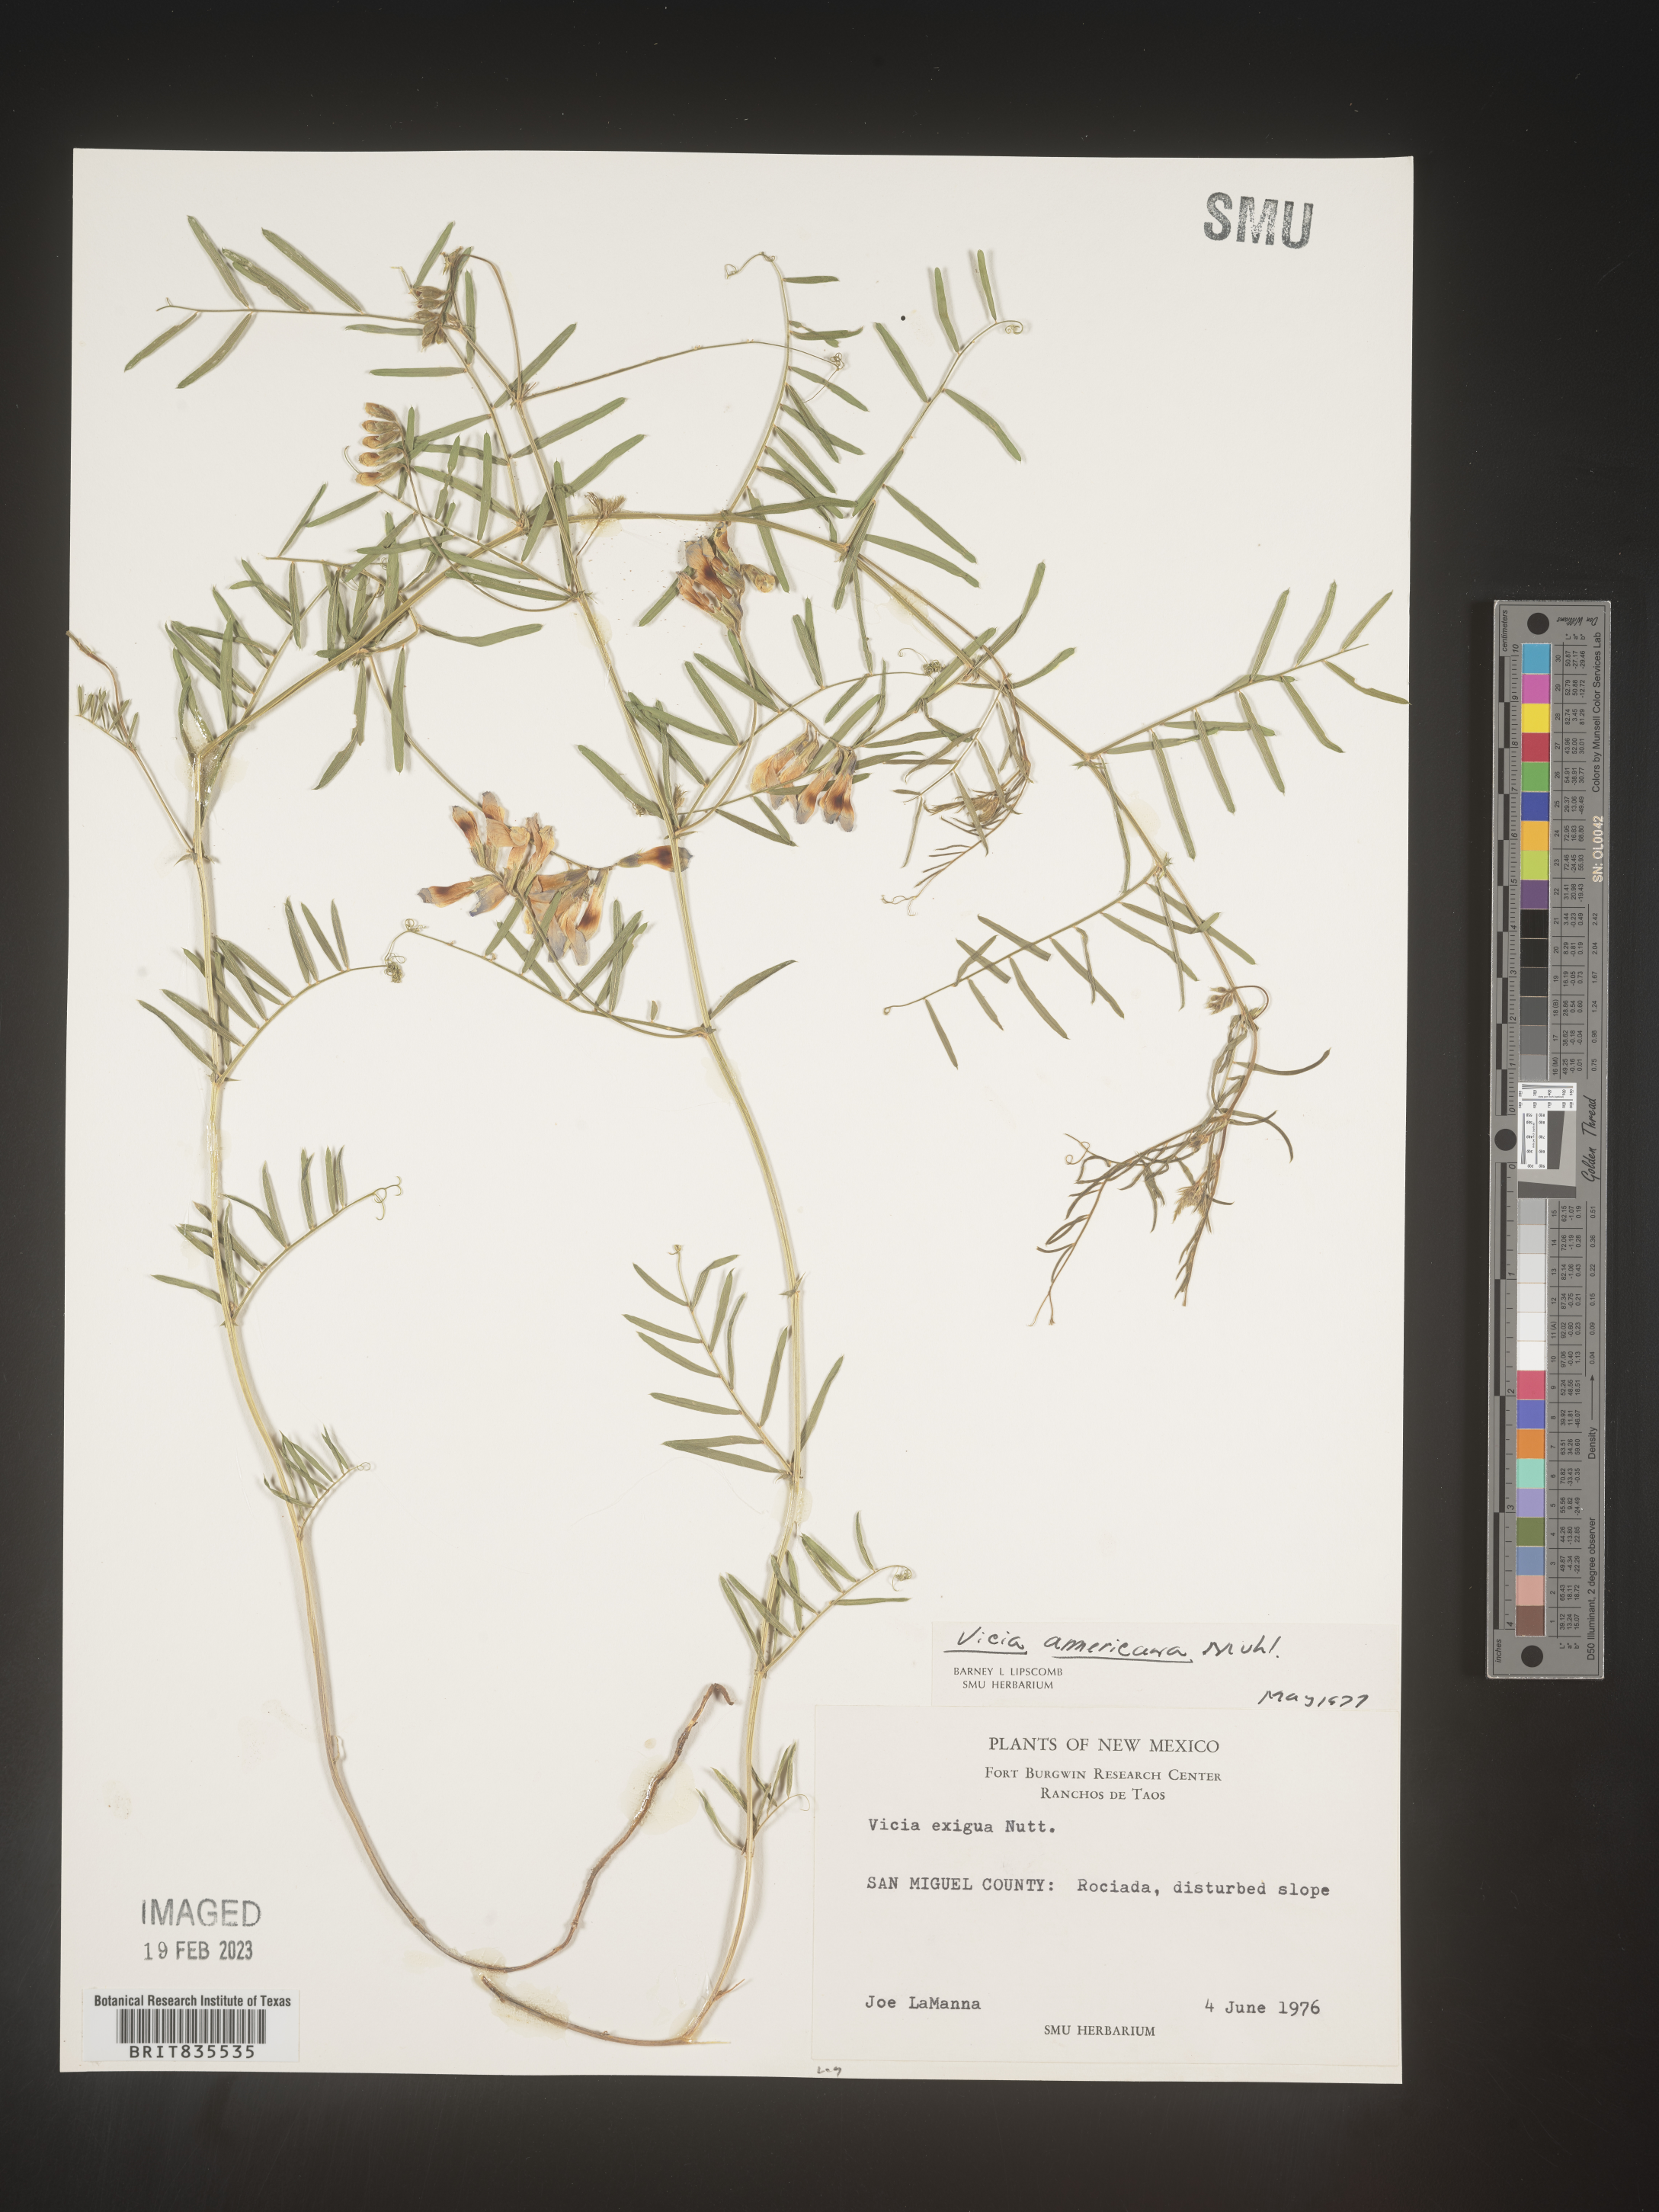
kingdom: Plantae
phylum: Tracheophyta
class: Magnoliopsida
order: Fabales
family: Fabaceae
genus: Vicia
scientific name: Vicia americana
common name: American vetch
